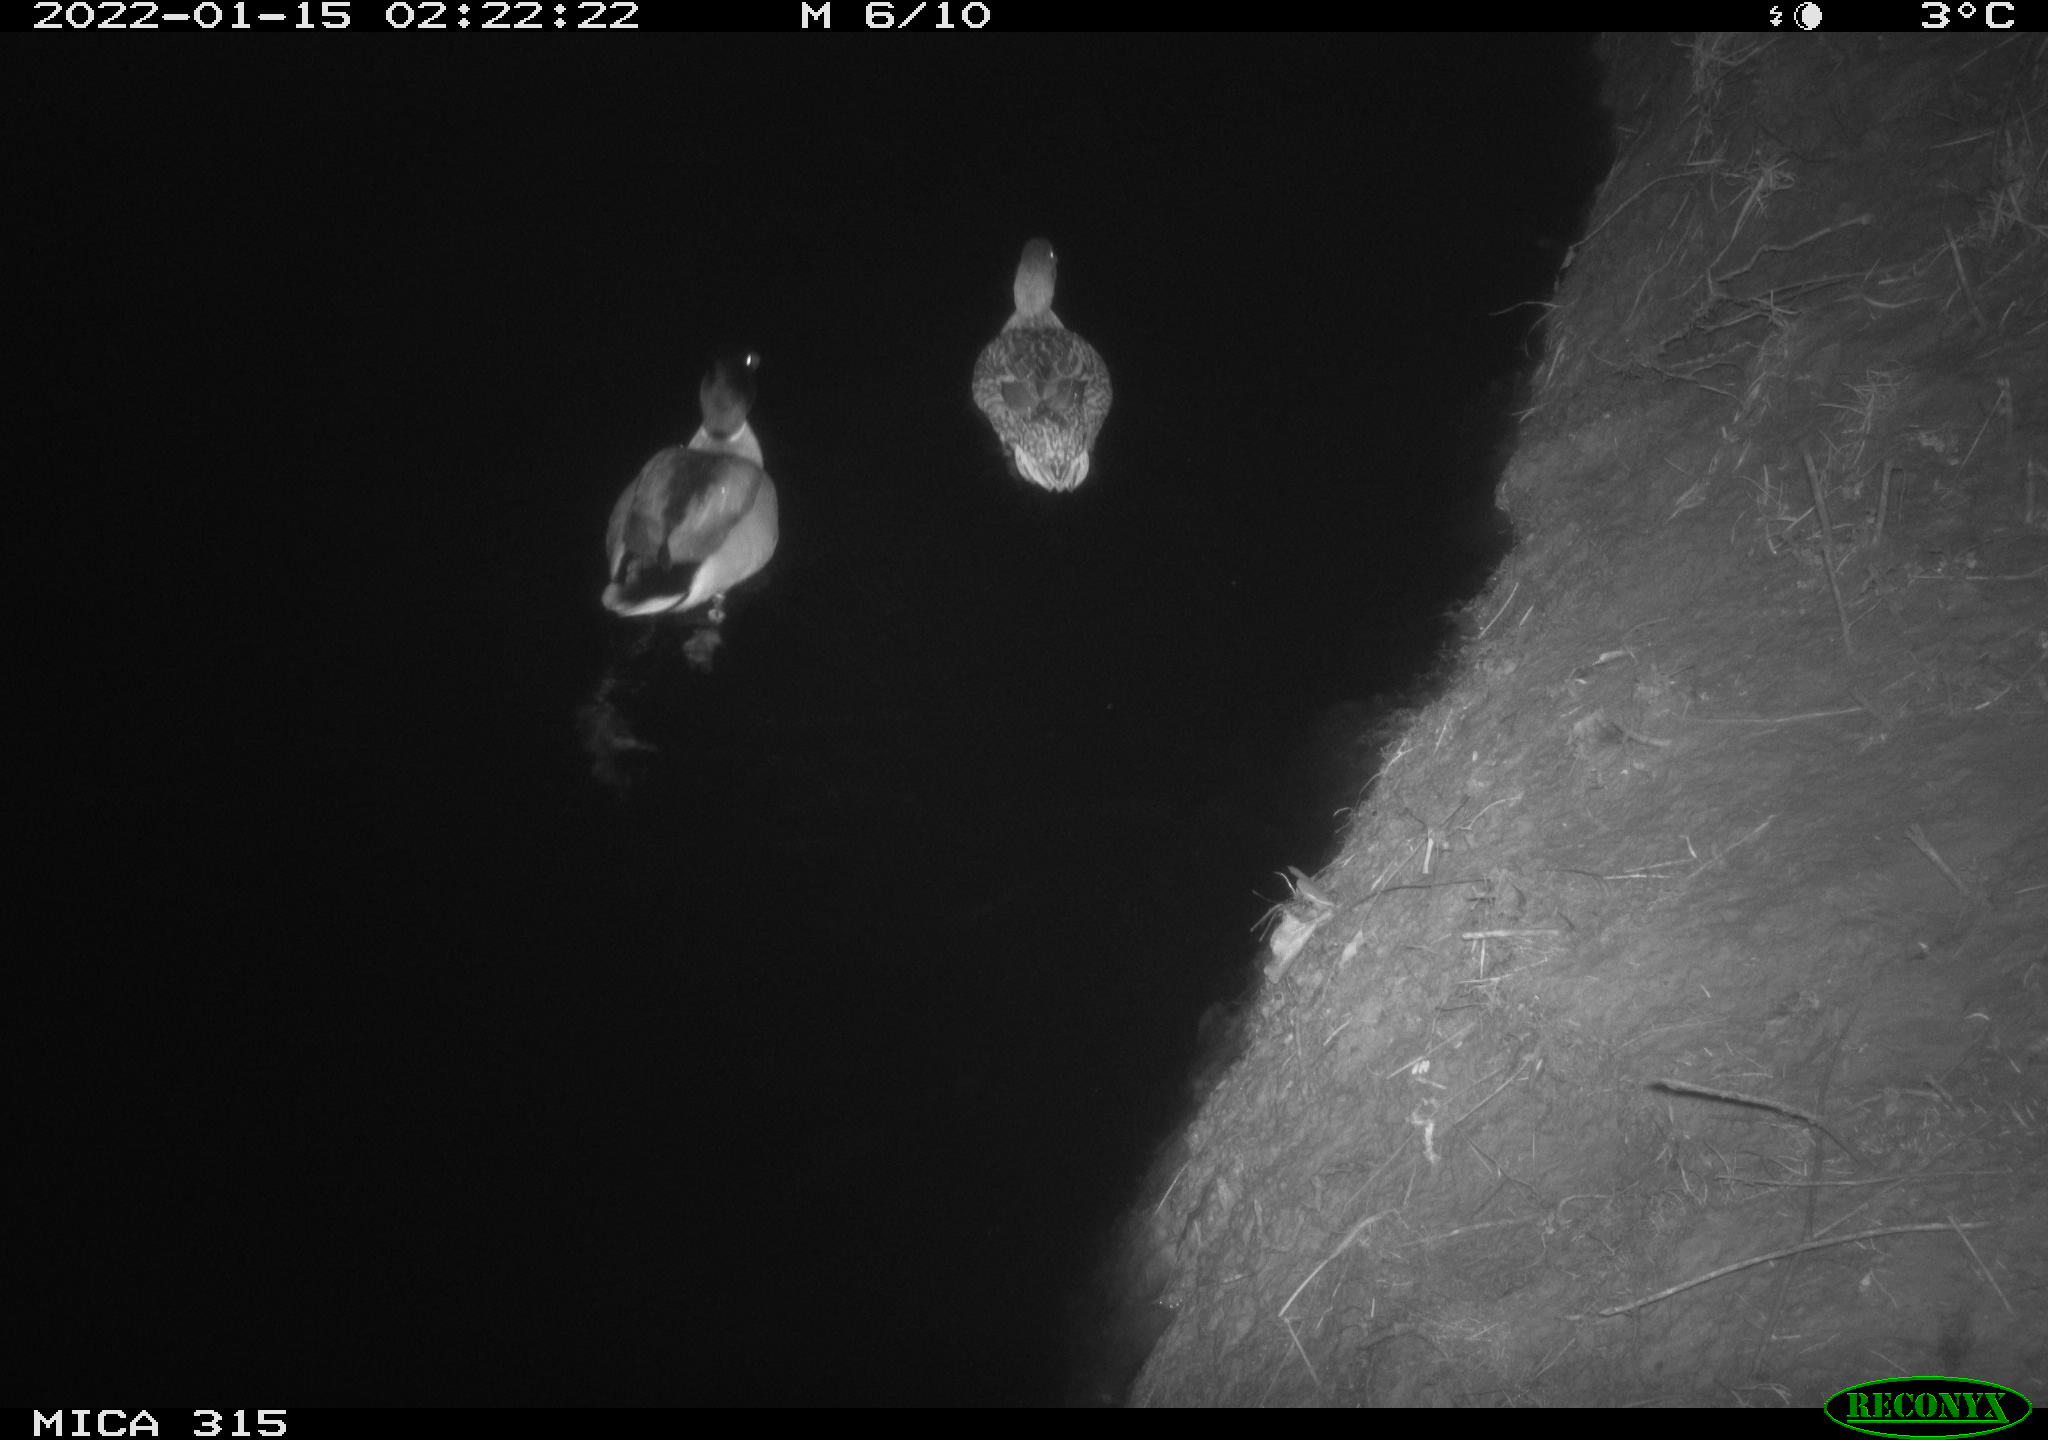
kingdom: Animalia
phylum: Chordata
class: Aves
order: Anseriformes
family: Anatidae
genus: Anas
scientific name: Anas
